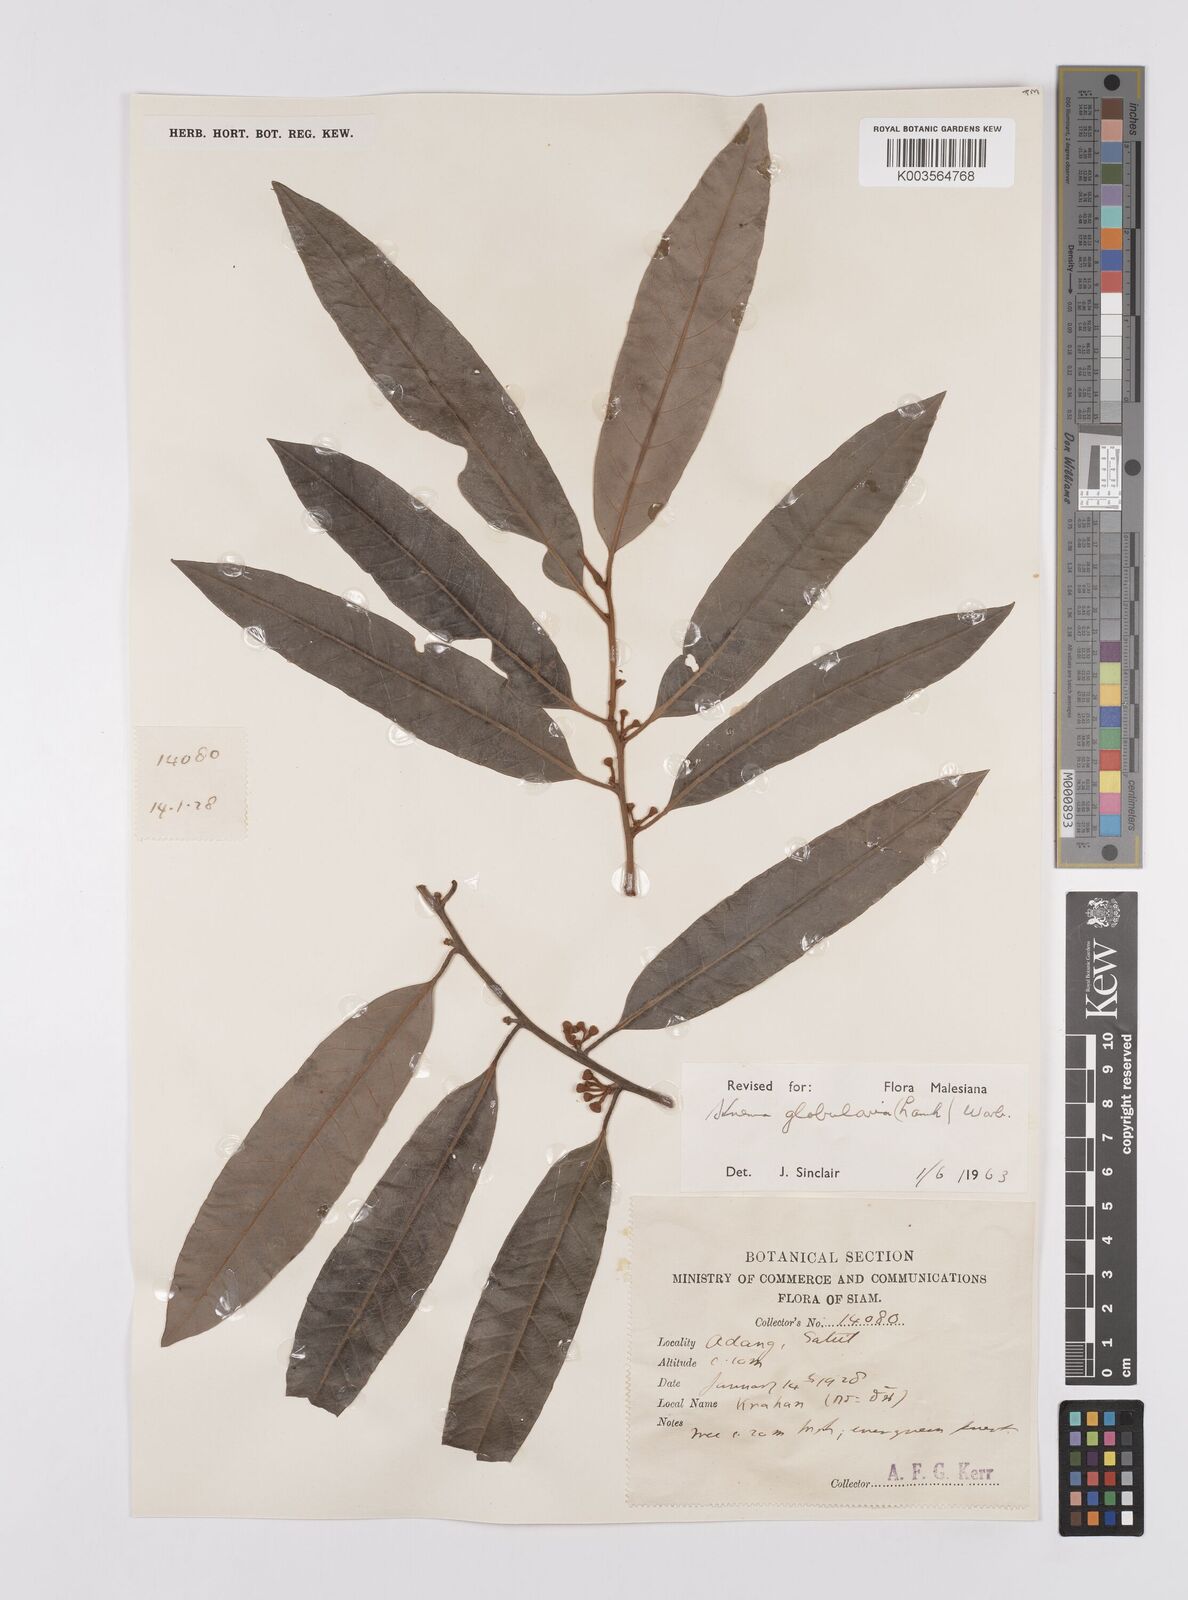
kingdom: Plantae
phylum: Tracheophyta
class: Magnoliopsida
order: Magnoliales
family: Myristicaceae
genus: Knema
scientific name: Knema globularia
